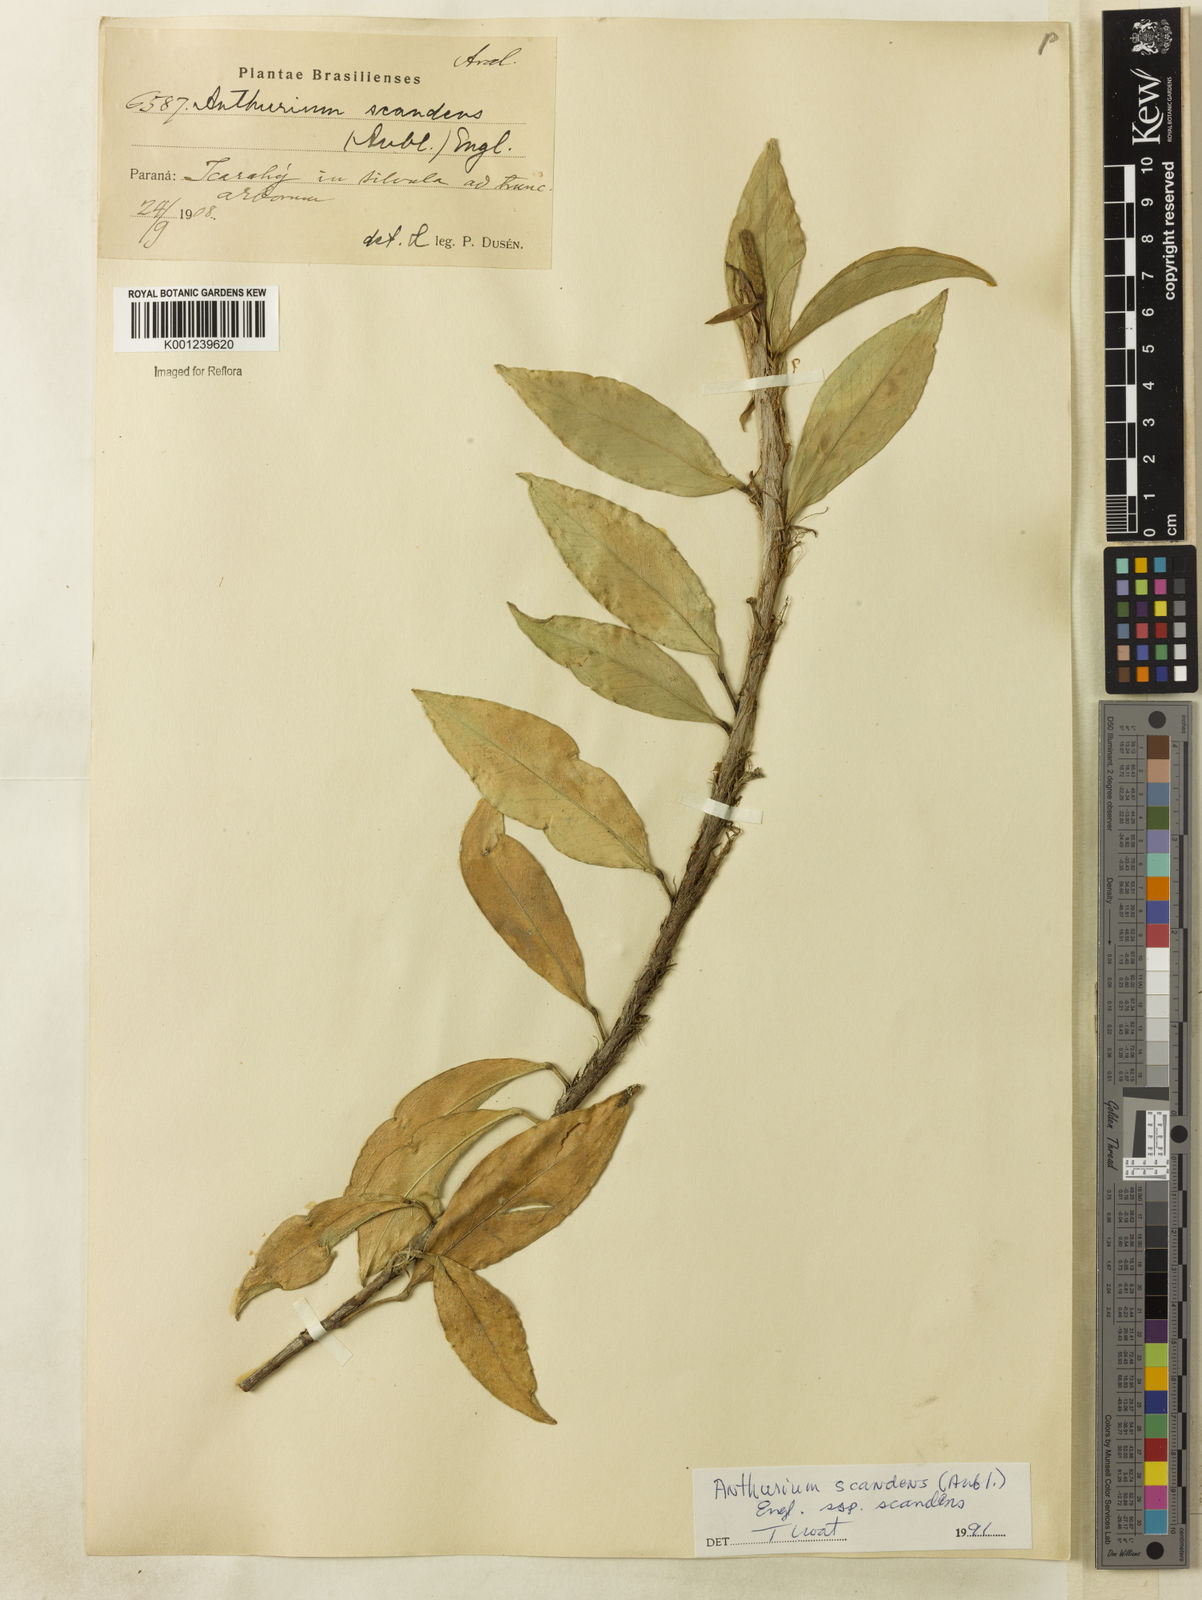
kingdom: Plantae
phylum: Tracheophyta
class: Liliopsida
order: Alismatales
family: Araceae
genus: Anthurium
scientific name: Anthurium scandens
